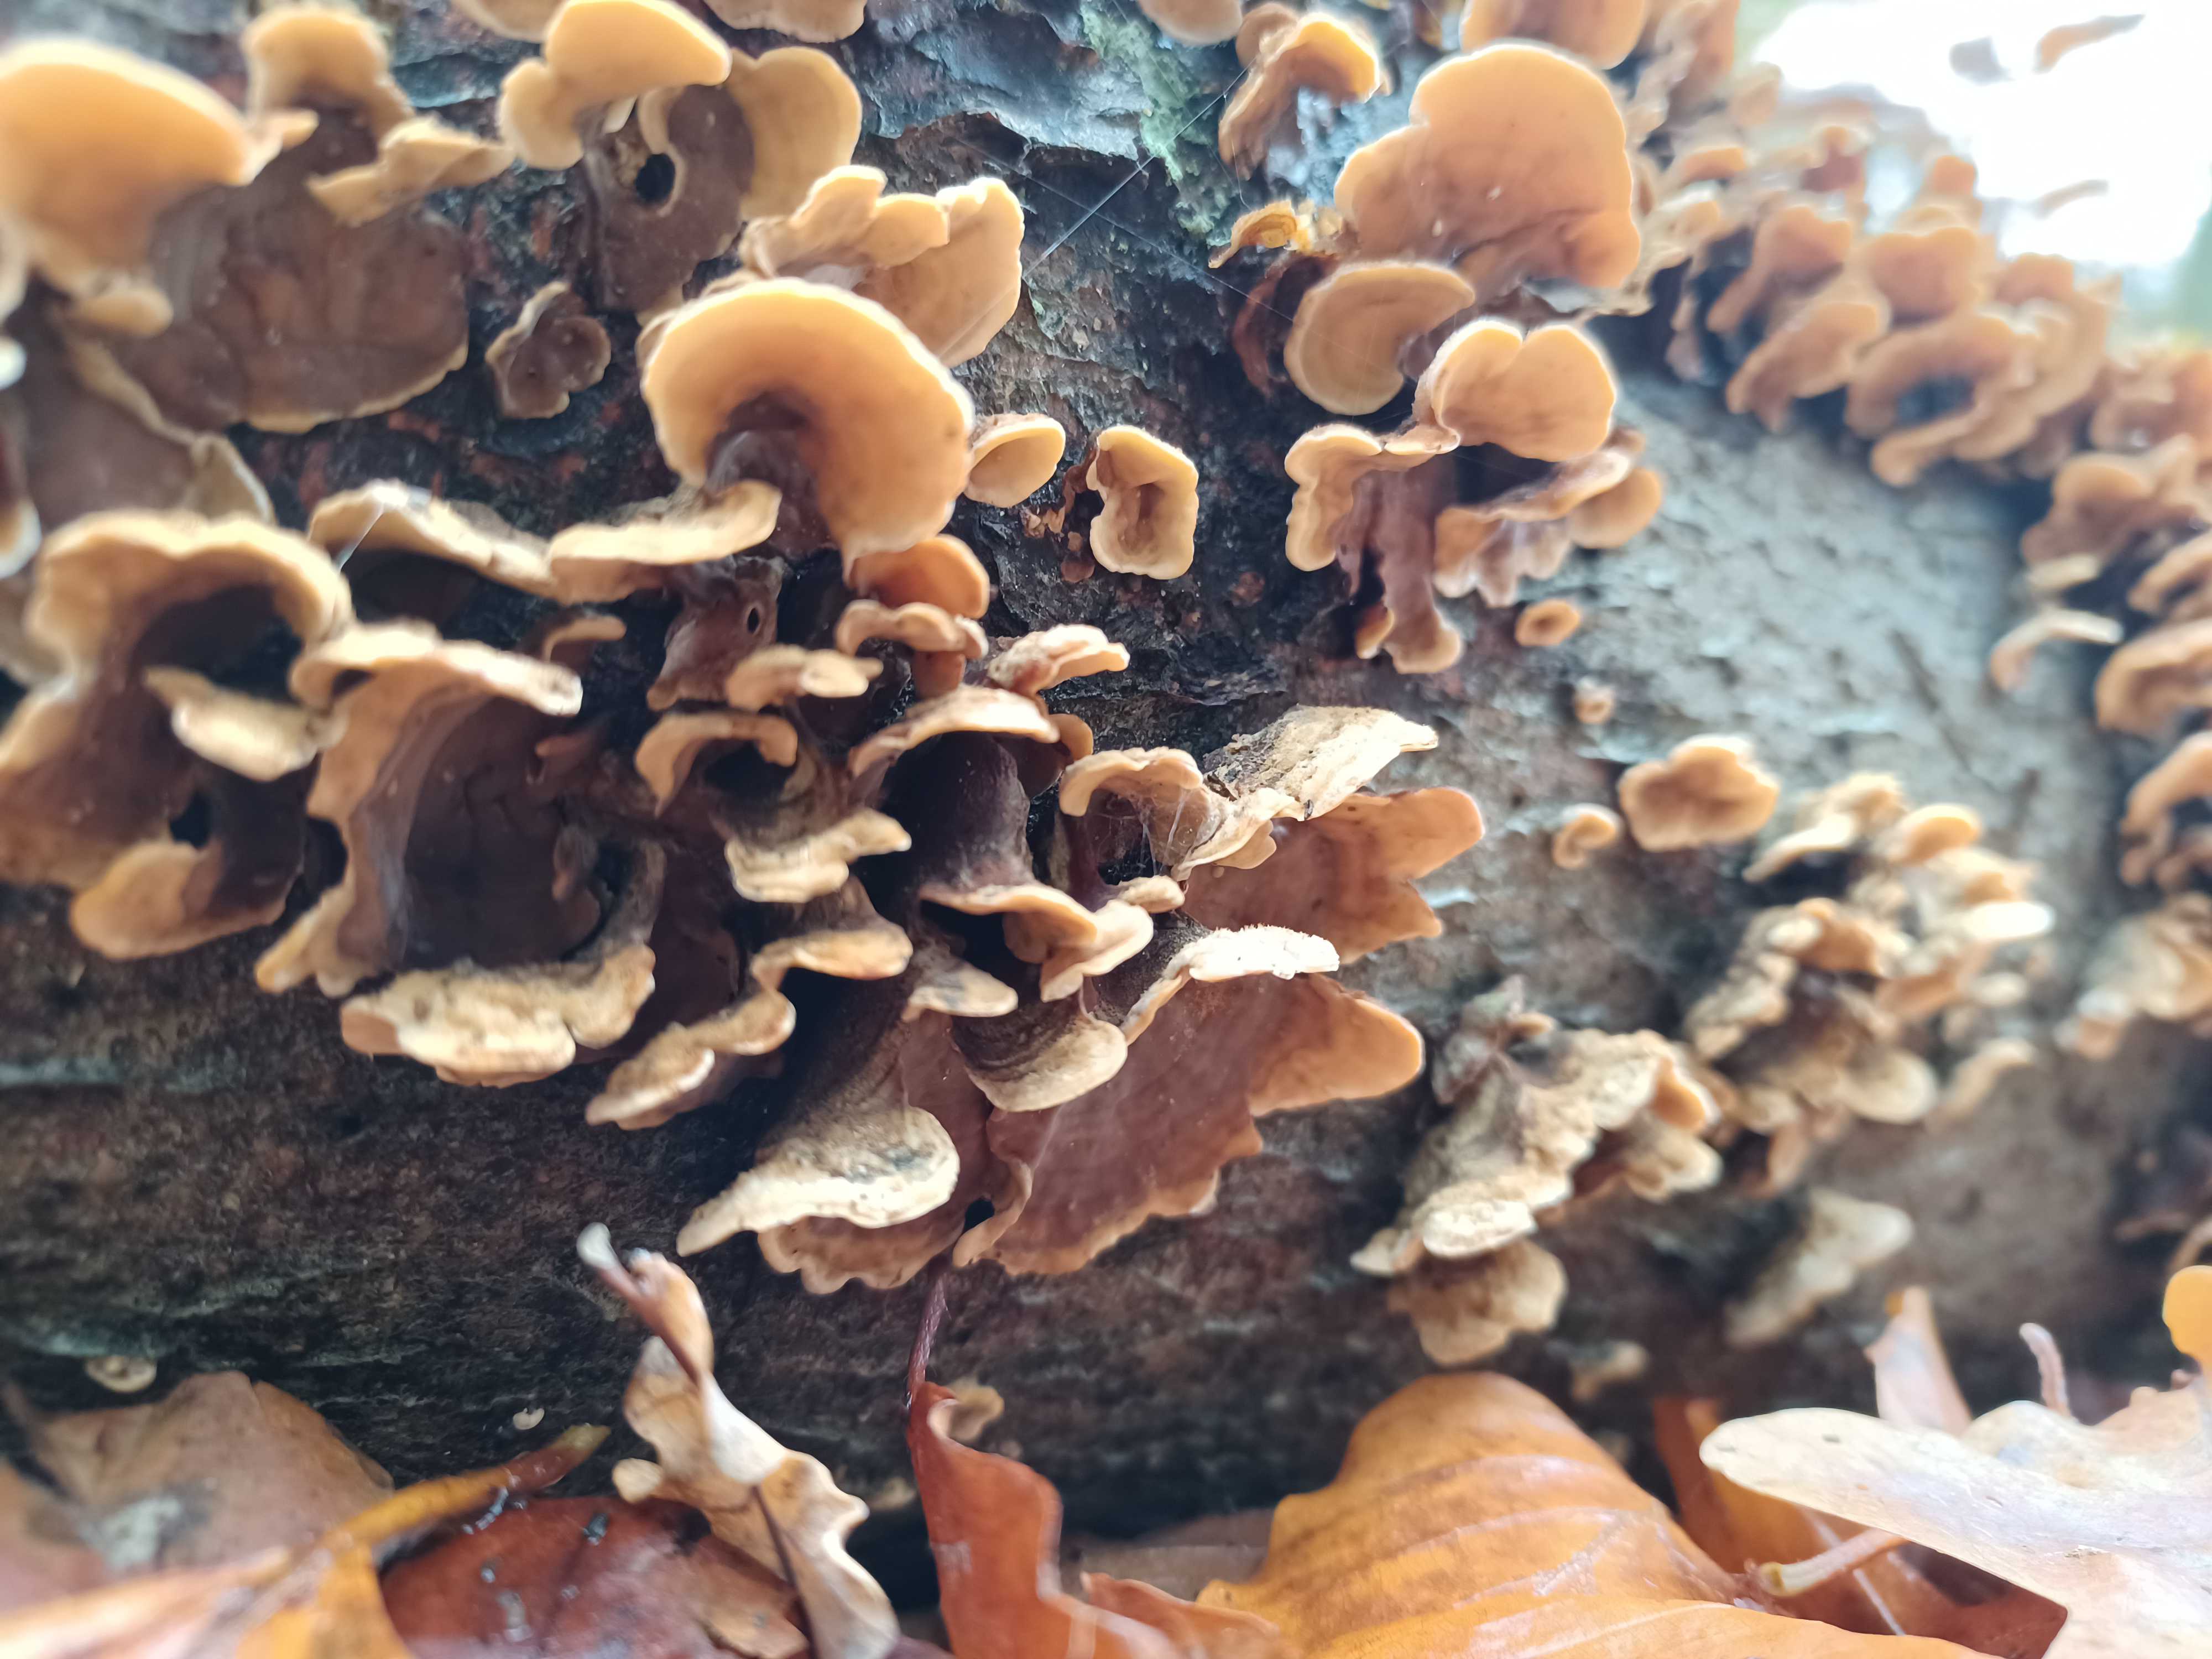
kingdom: Fungi
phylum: Basidiomycota
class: Agaricomycetes
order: Russulales
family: Stereaceae
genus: Stereum
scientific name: Stereum hirsutum
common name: håret lædersvamp
